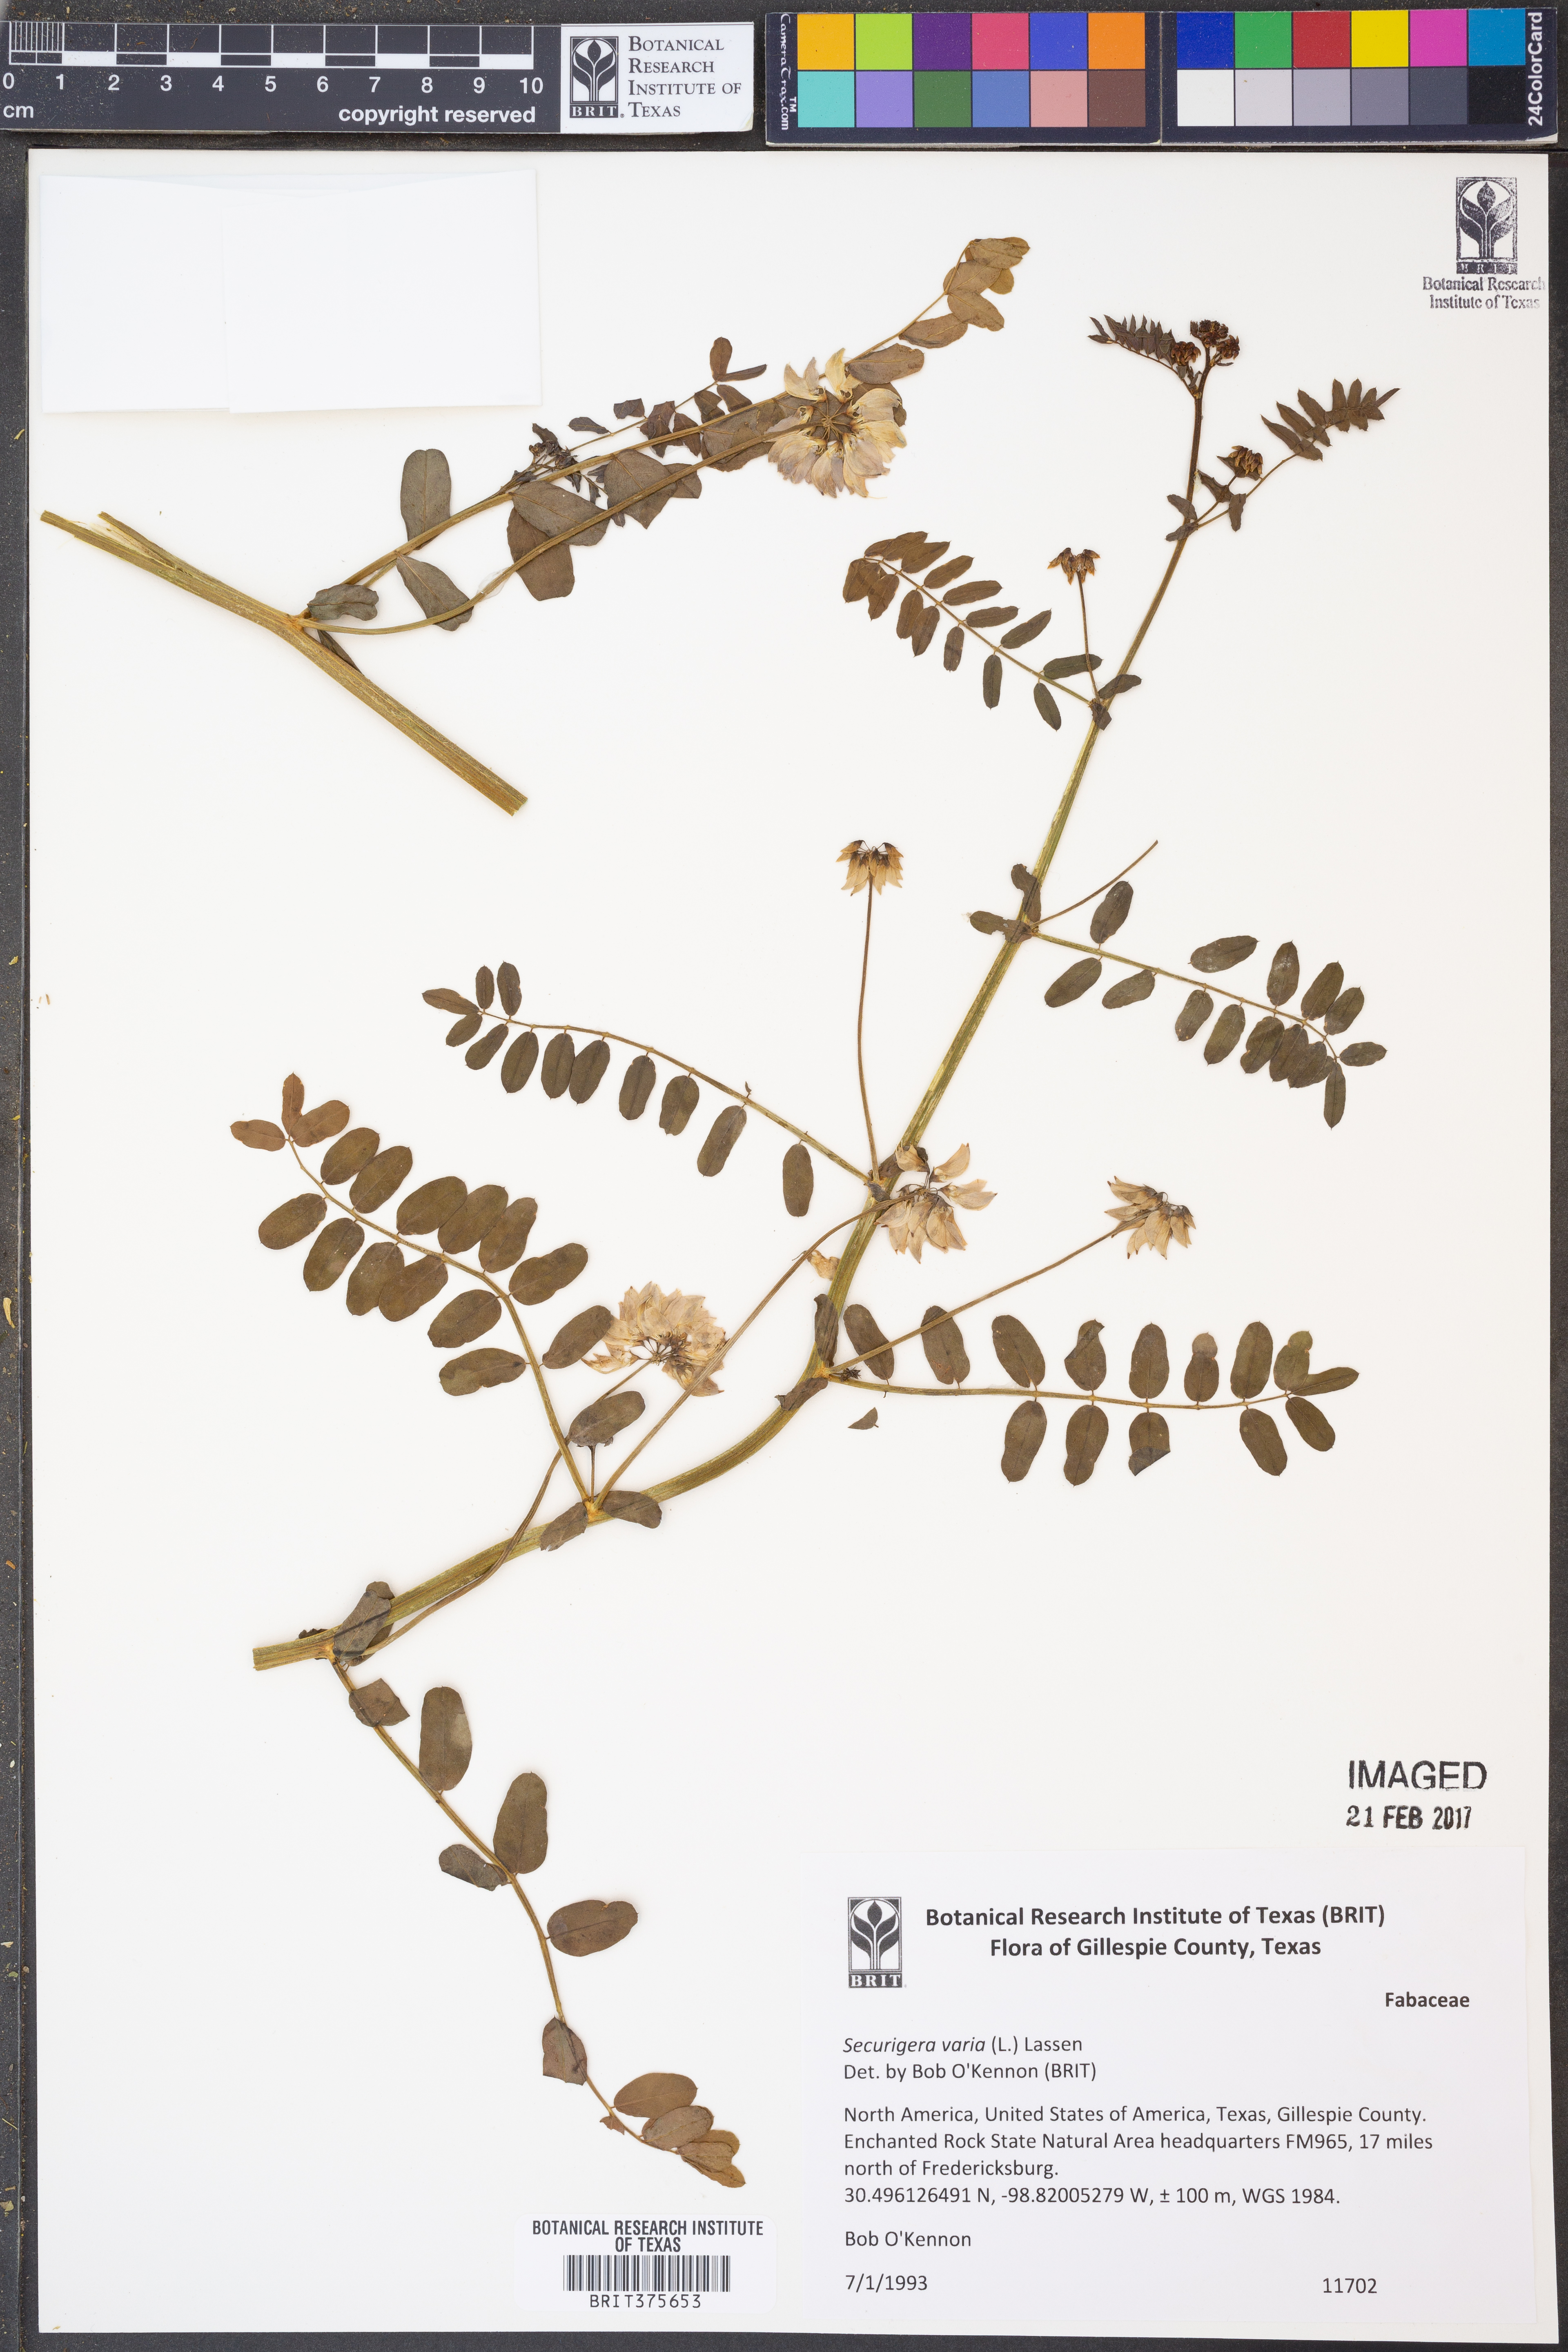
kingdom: Plantae
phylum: Tracheophyta
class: Magnoliopsida
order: Fabales
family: Fabaceae
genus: Coronilla
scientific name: Coronilla varia
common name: Crownvetch
